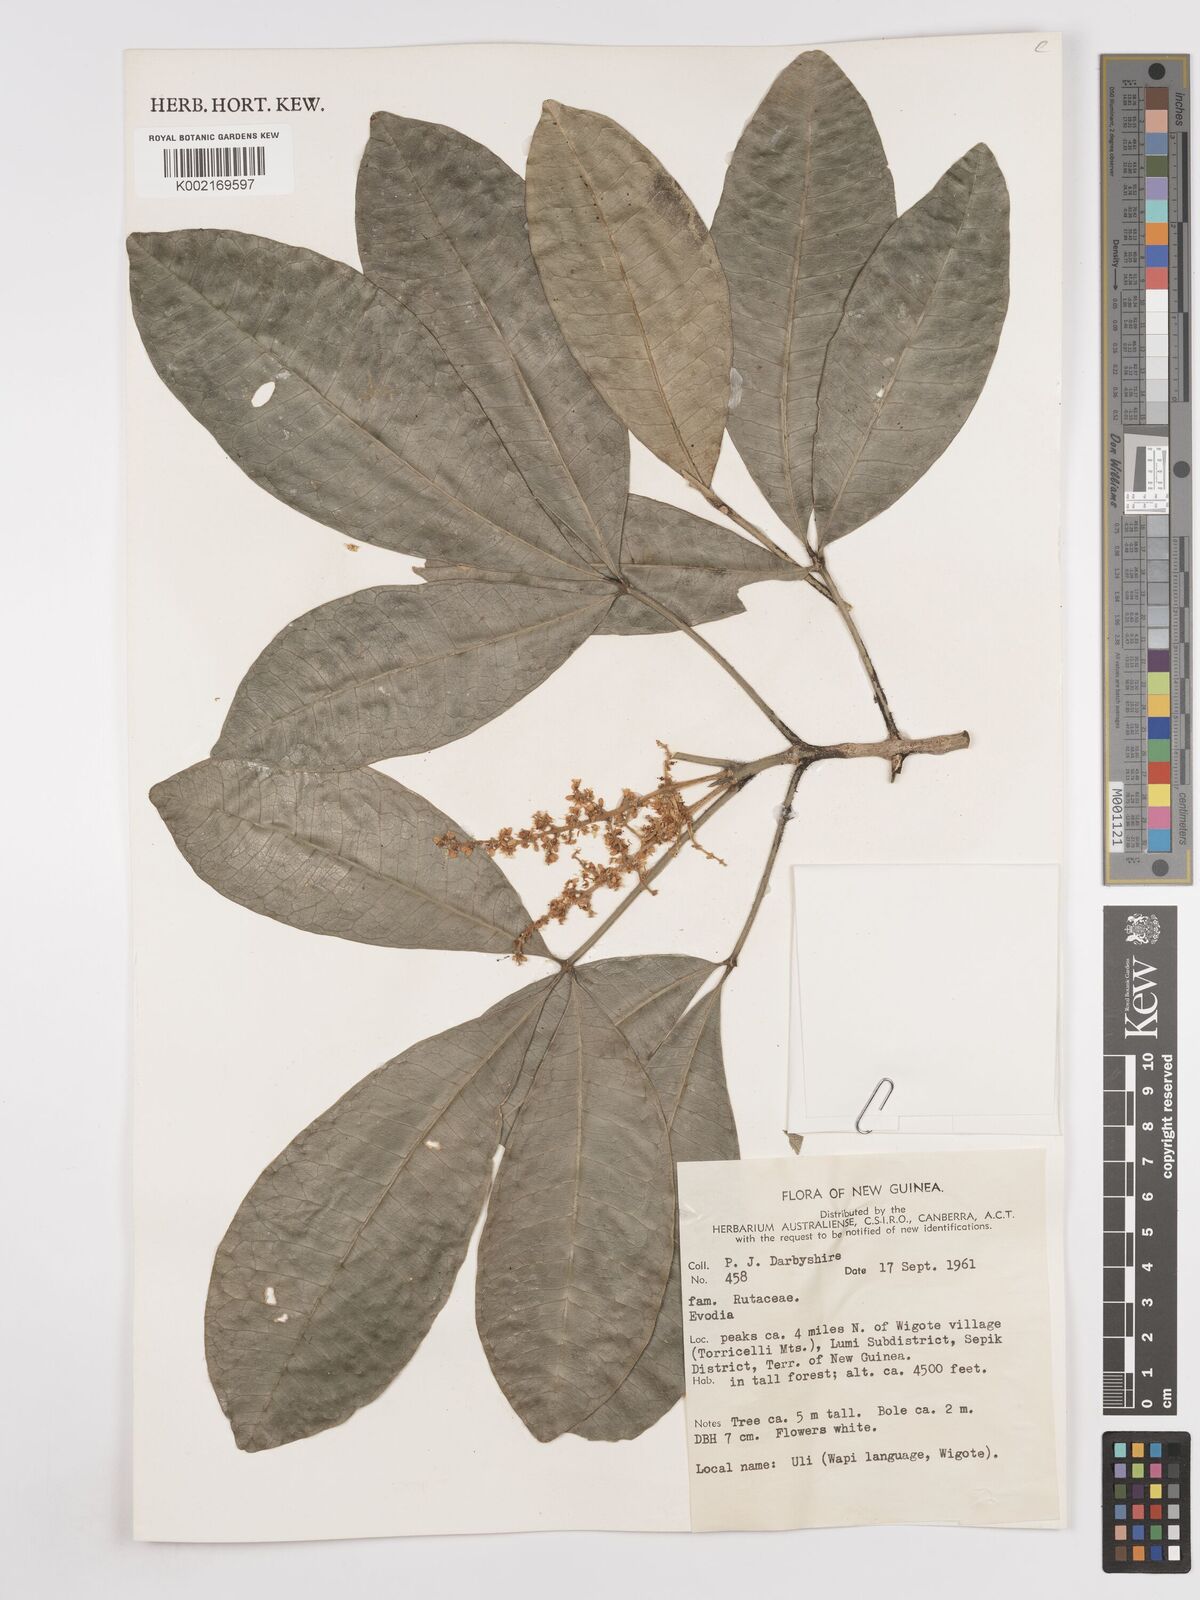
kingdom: Plantae
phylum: Tracheophyta
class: Magnoliopsida
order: Sapindales
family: Rutaceae
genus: Euodia
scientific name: Euodia
